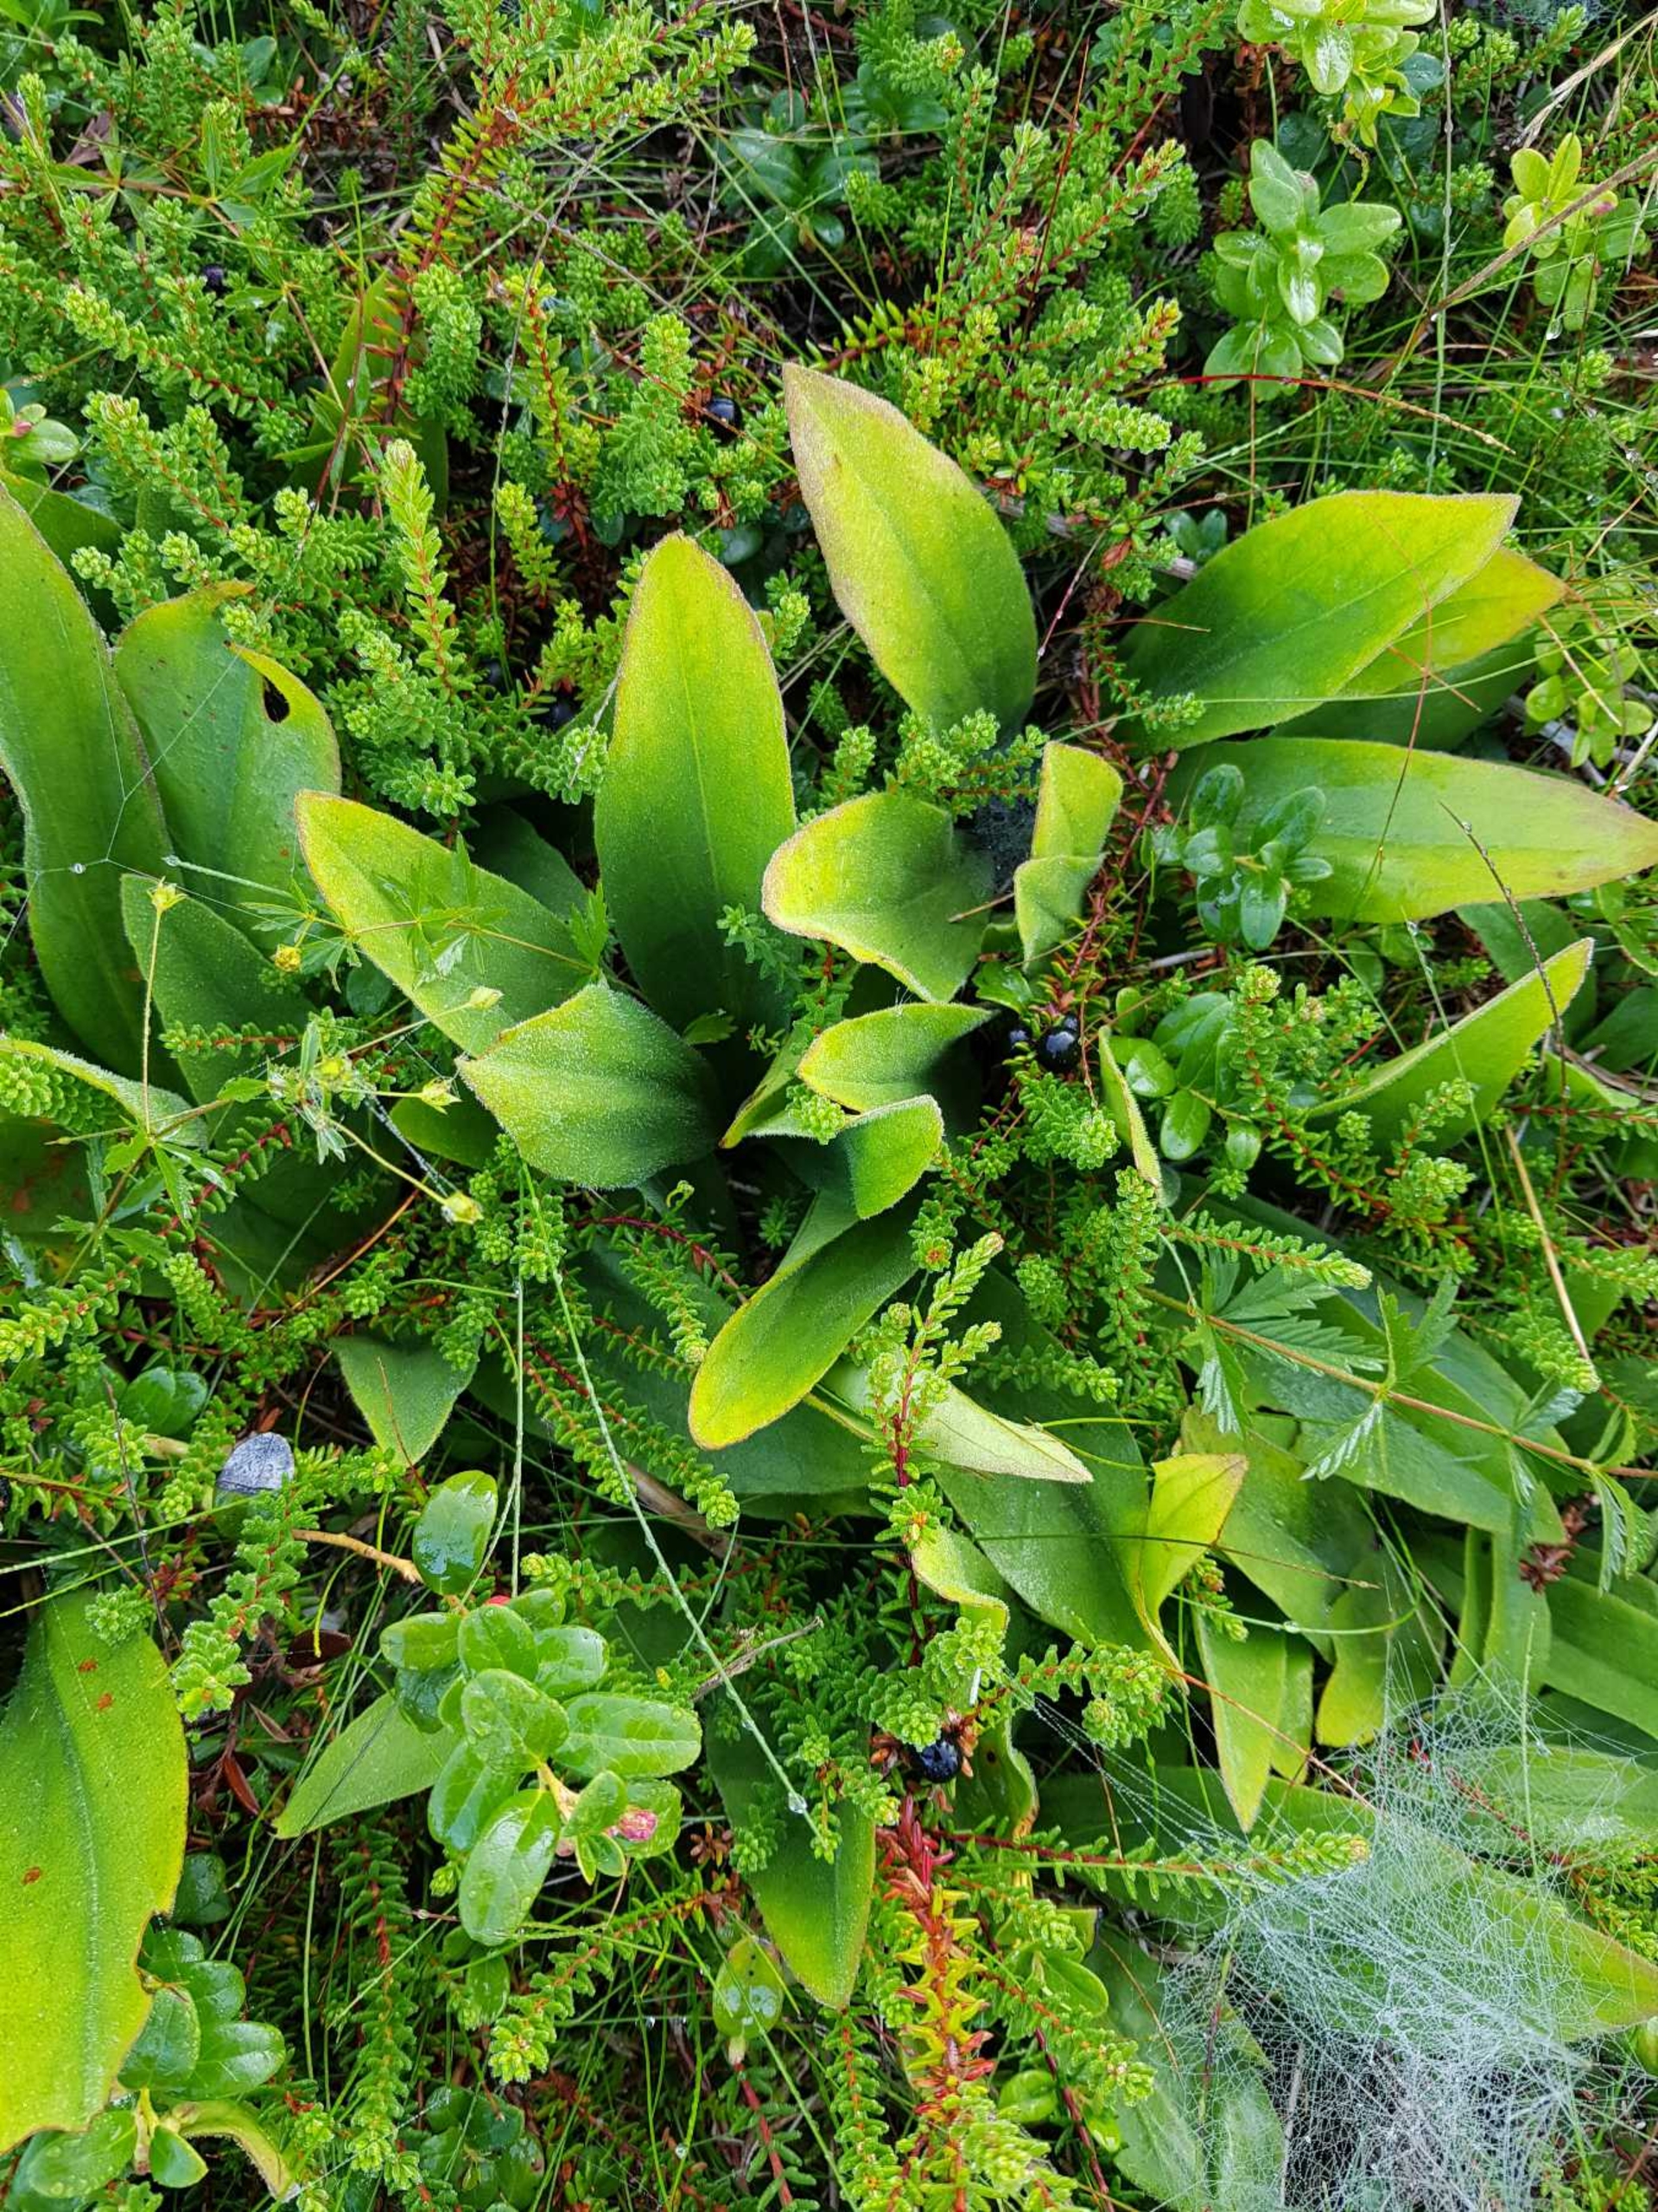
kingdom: Plantae
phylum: Tracheophyta
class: Magnoliopsida
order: Asterales
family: Asteraceae
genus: Arnica
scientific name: Arnica montana
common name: Guldblomme
